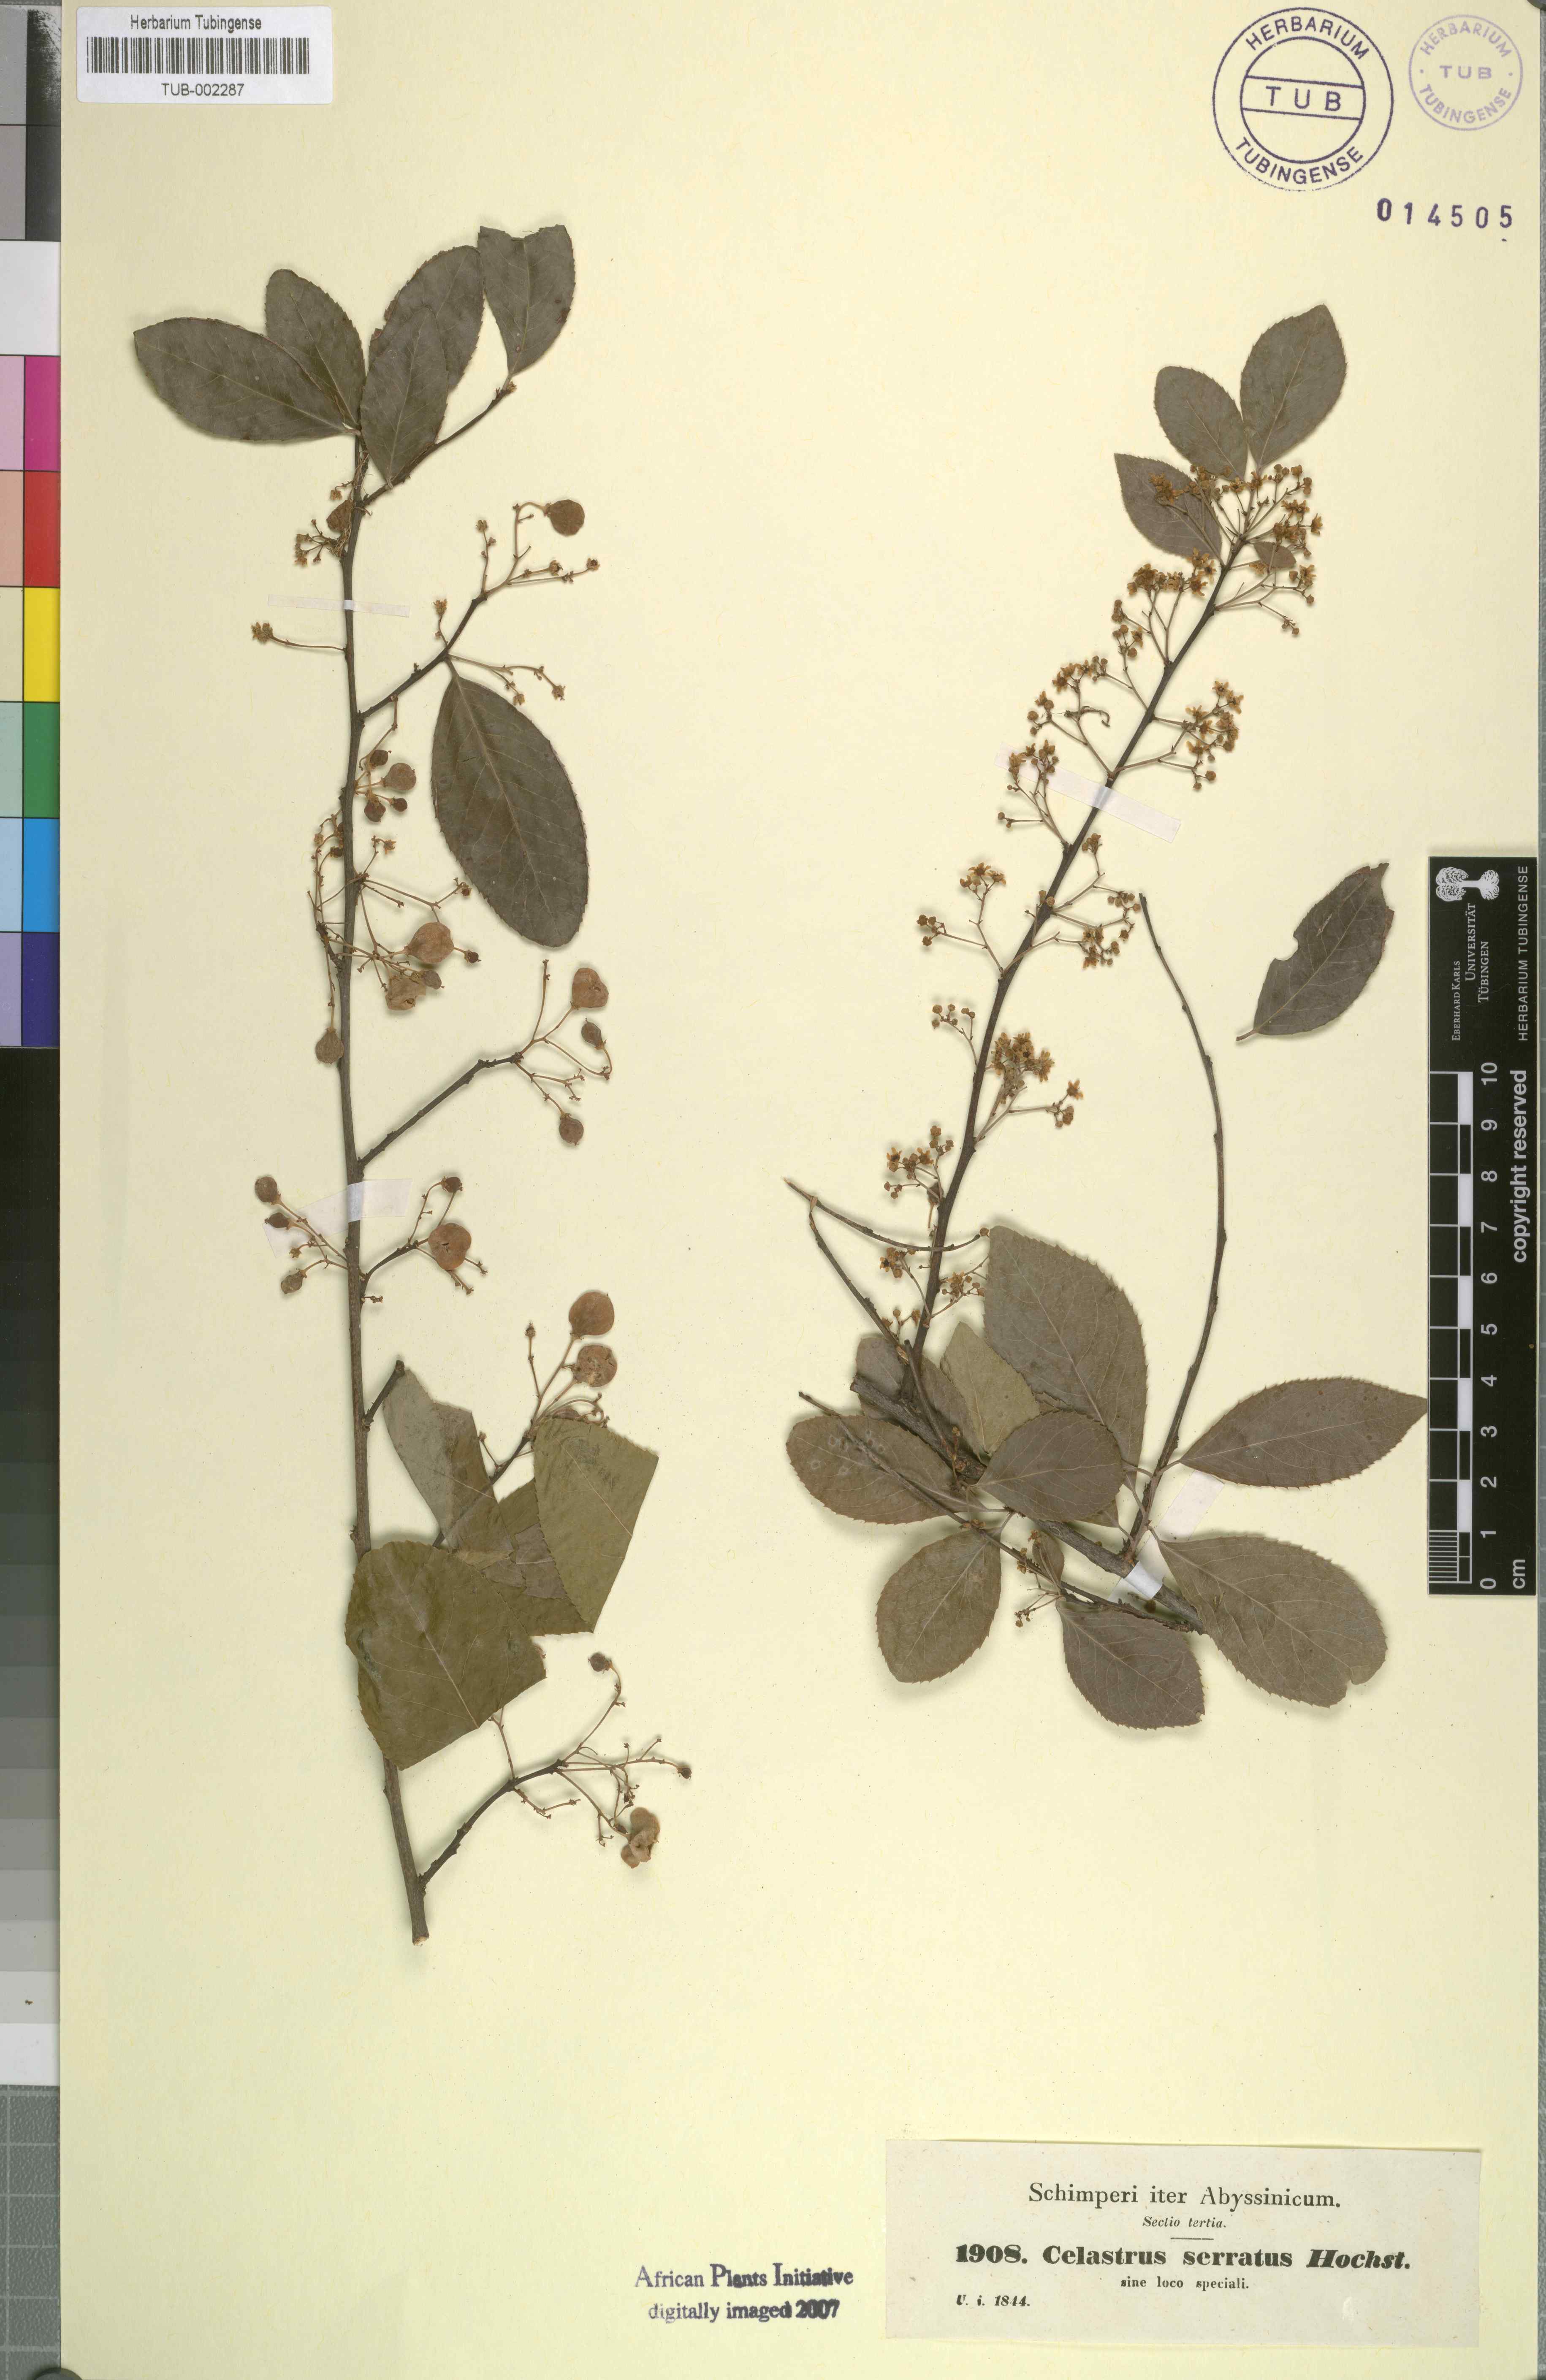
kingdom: Plantae
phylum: Tracheophyta
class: Magnoliopsida
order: Celastrales
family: Celastraceae
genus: Gymnosporia
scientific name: Gymnosporia serrata
